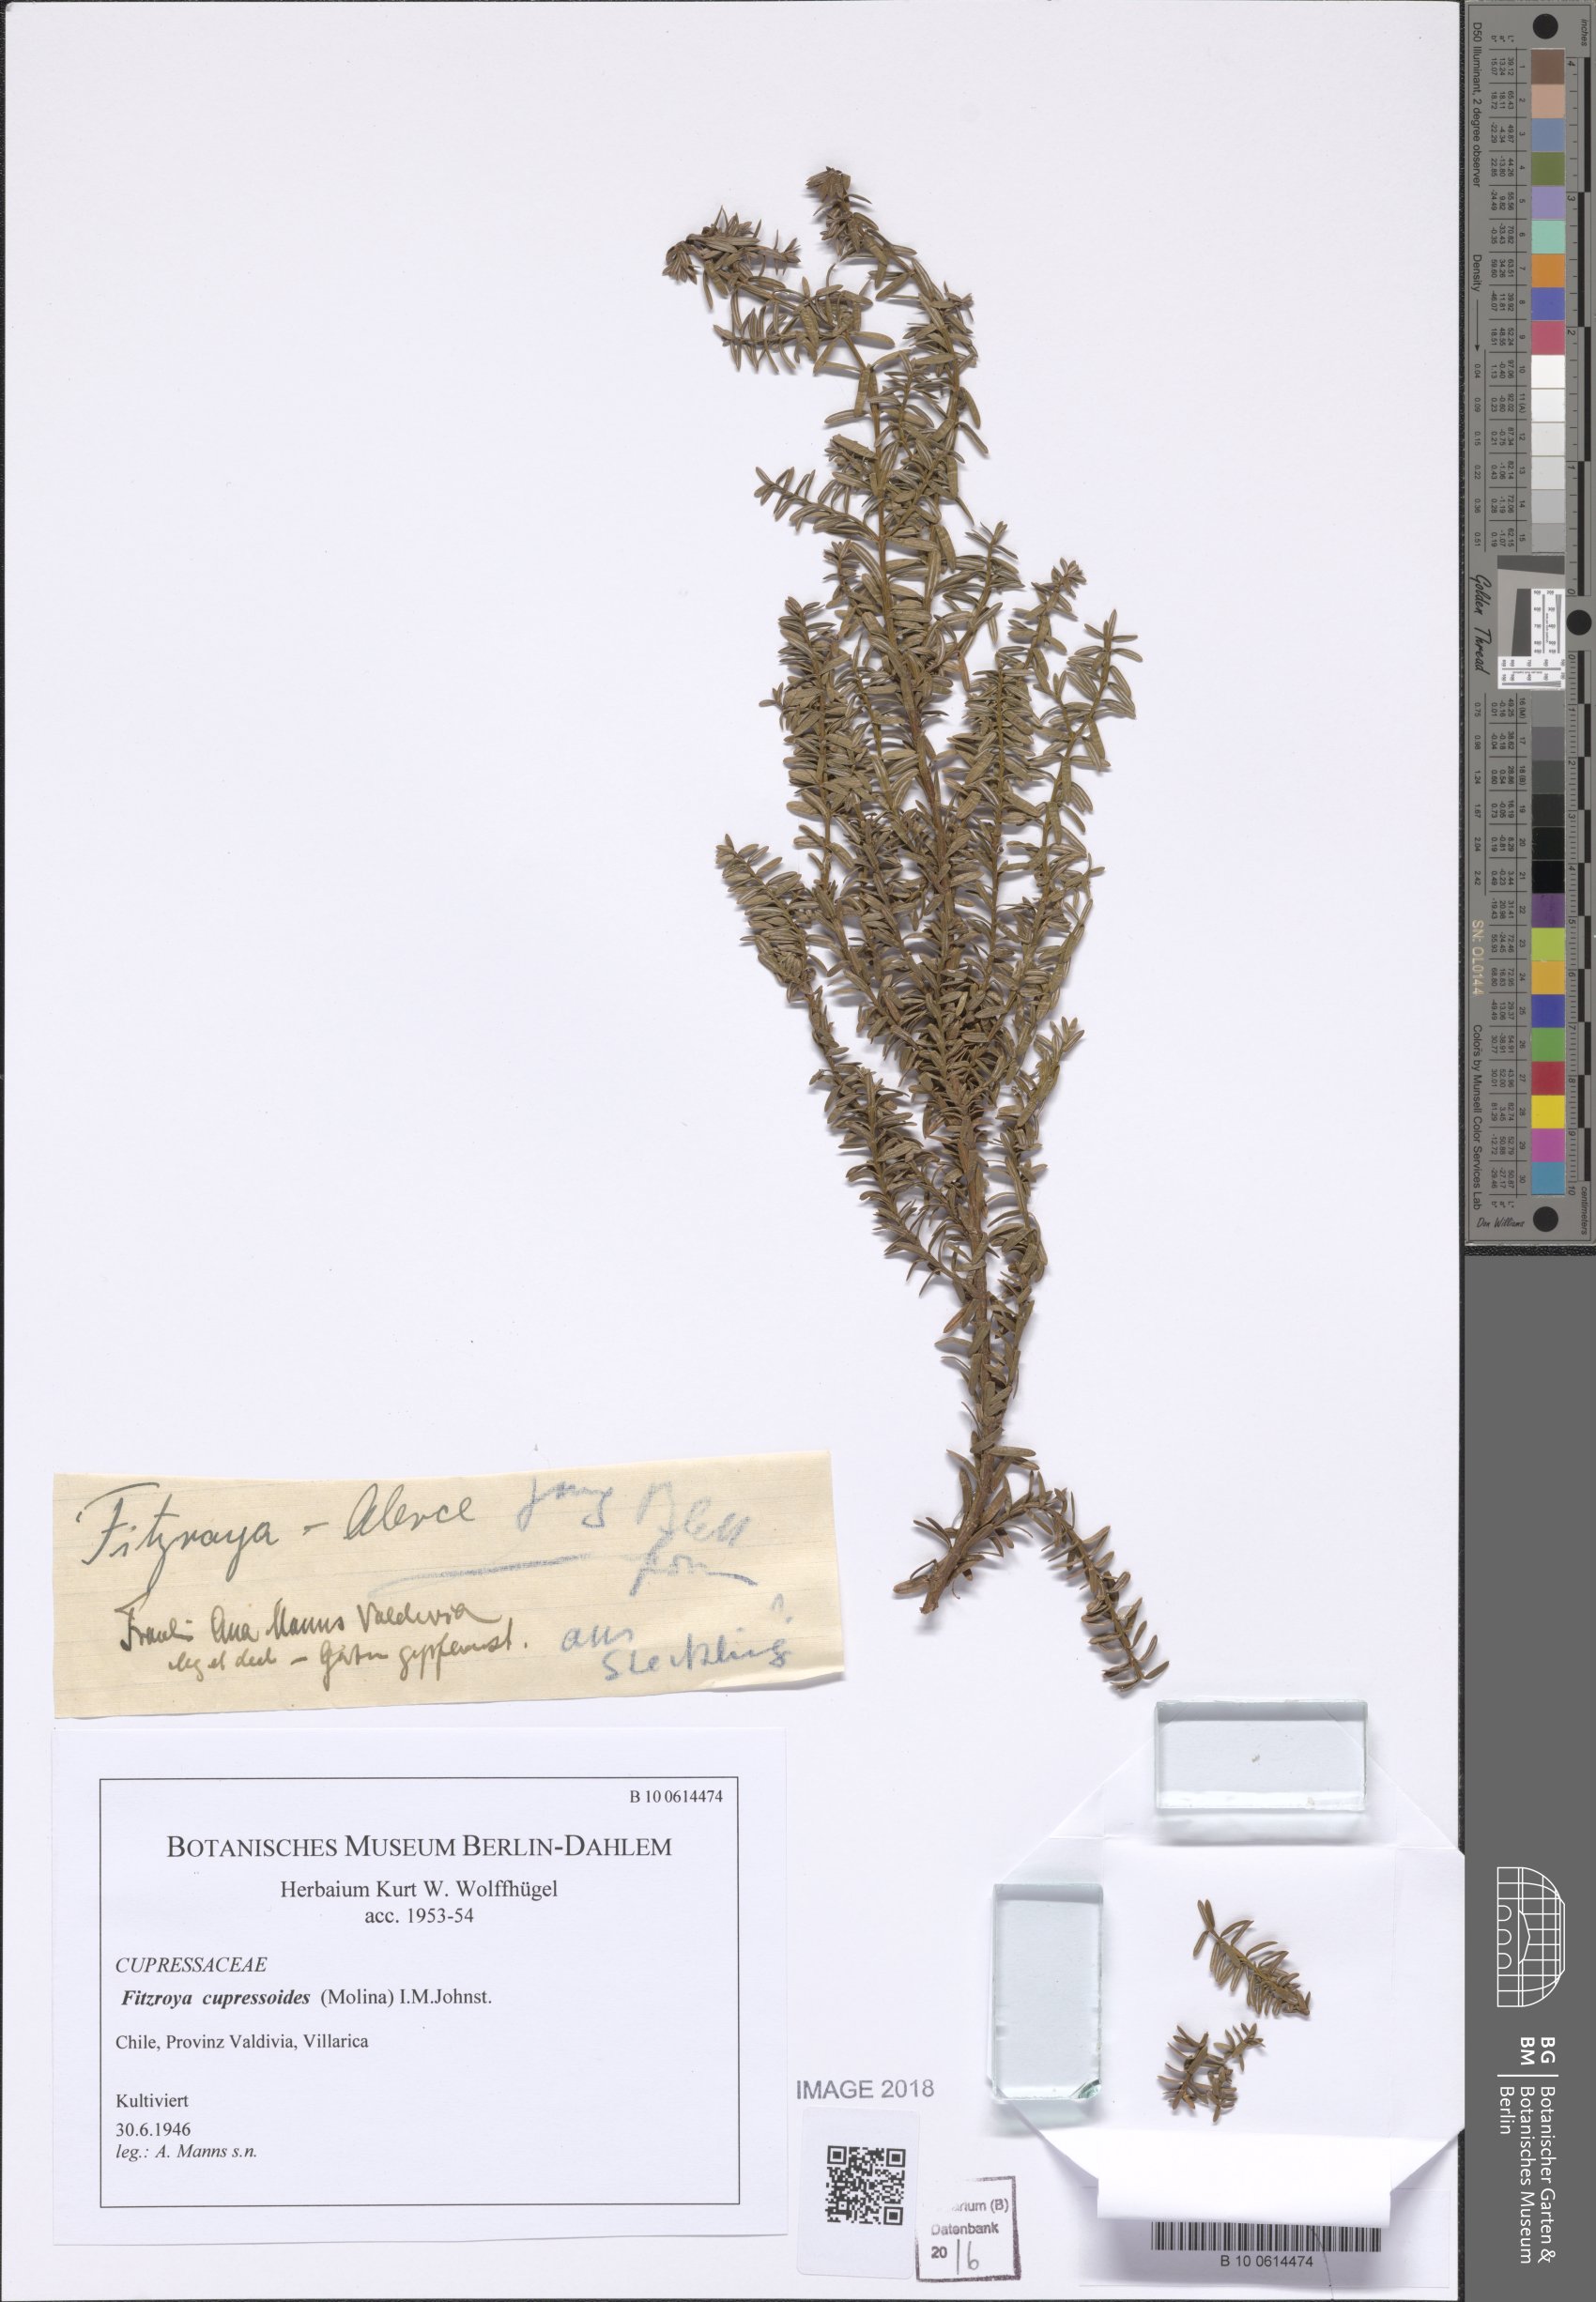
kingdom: Plantae
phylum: Tracheophyta
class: Pinopsida
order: Pinales
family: Cupressaceae
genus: Fitzroya
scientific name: Fitzroya cupressoides
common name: Patagonian cypress
